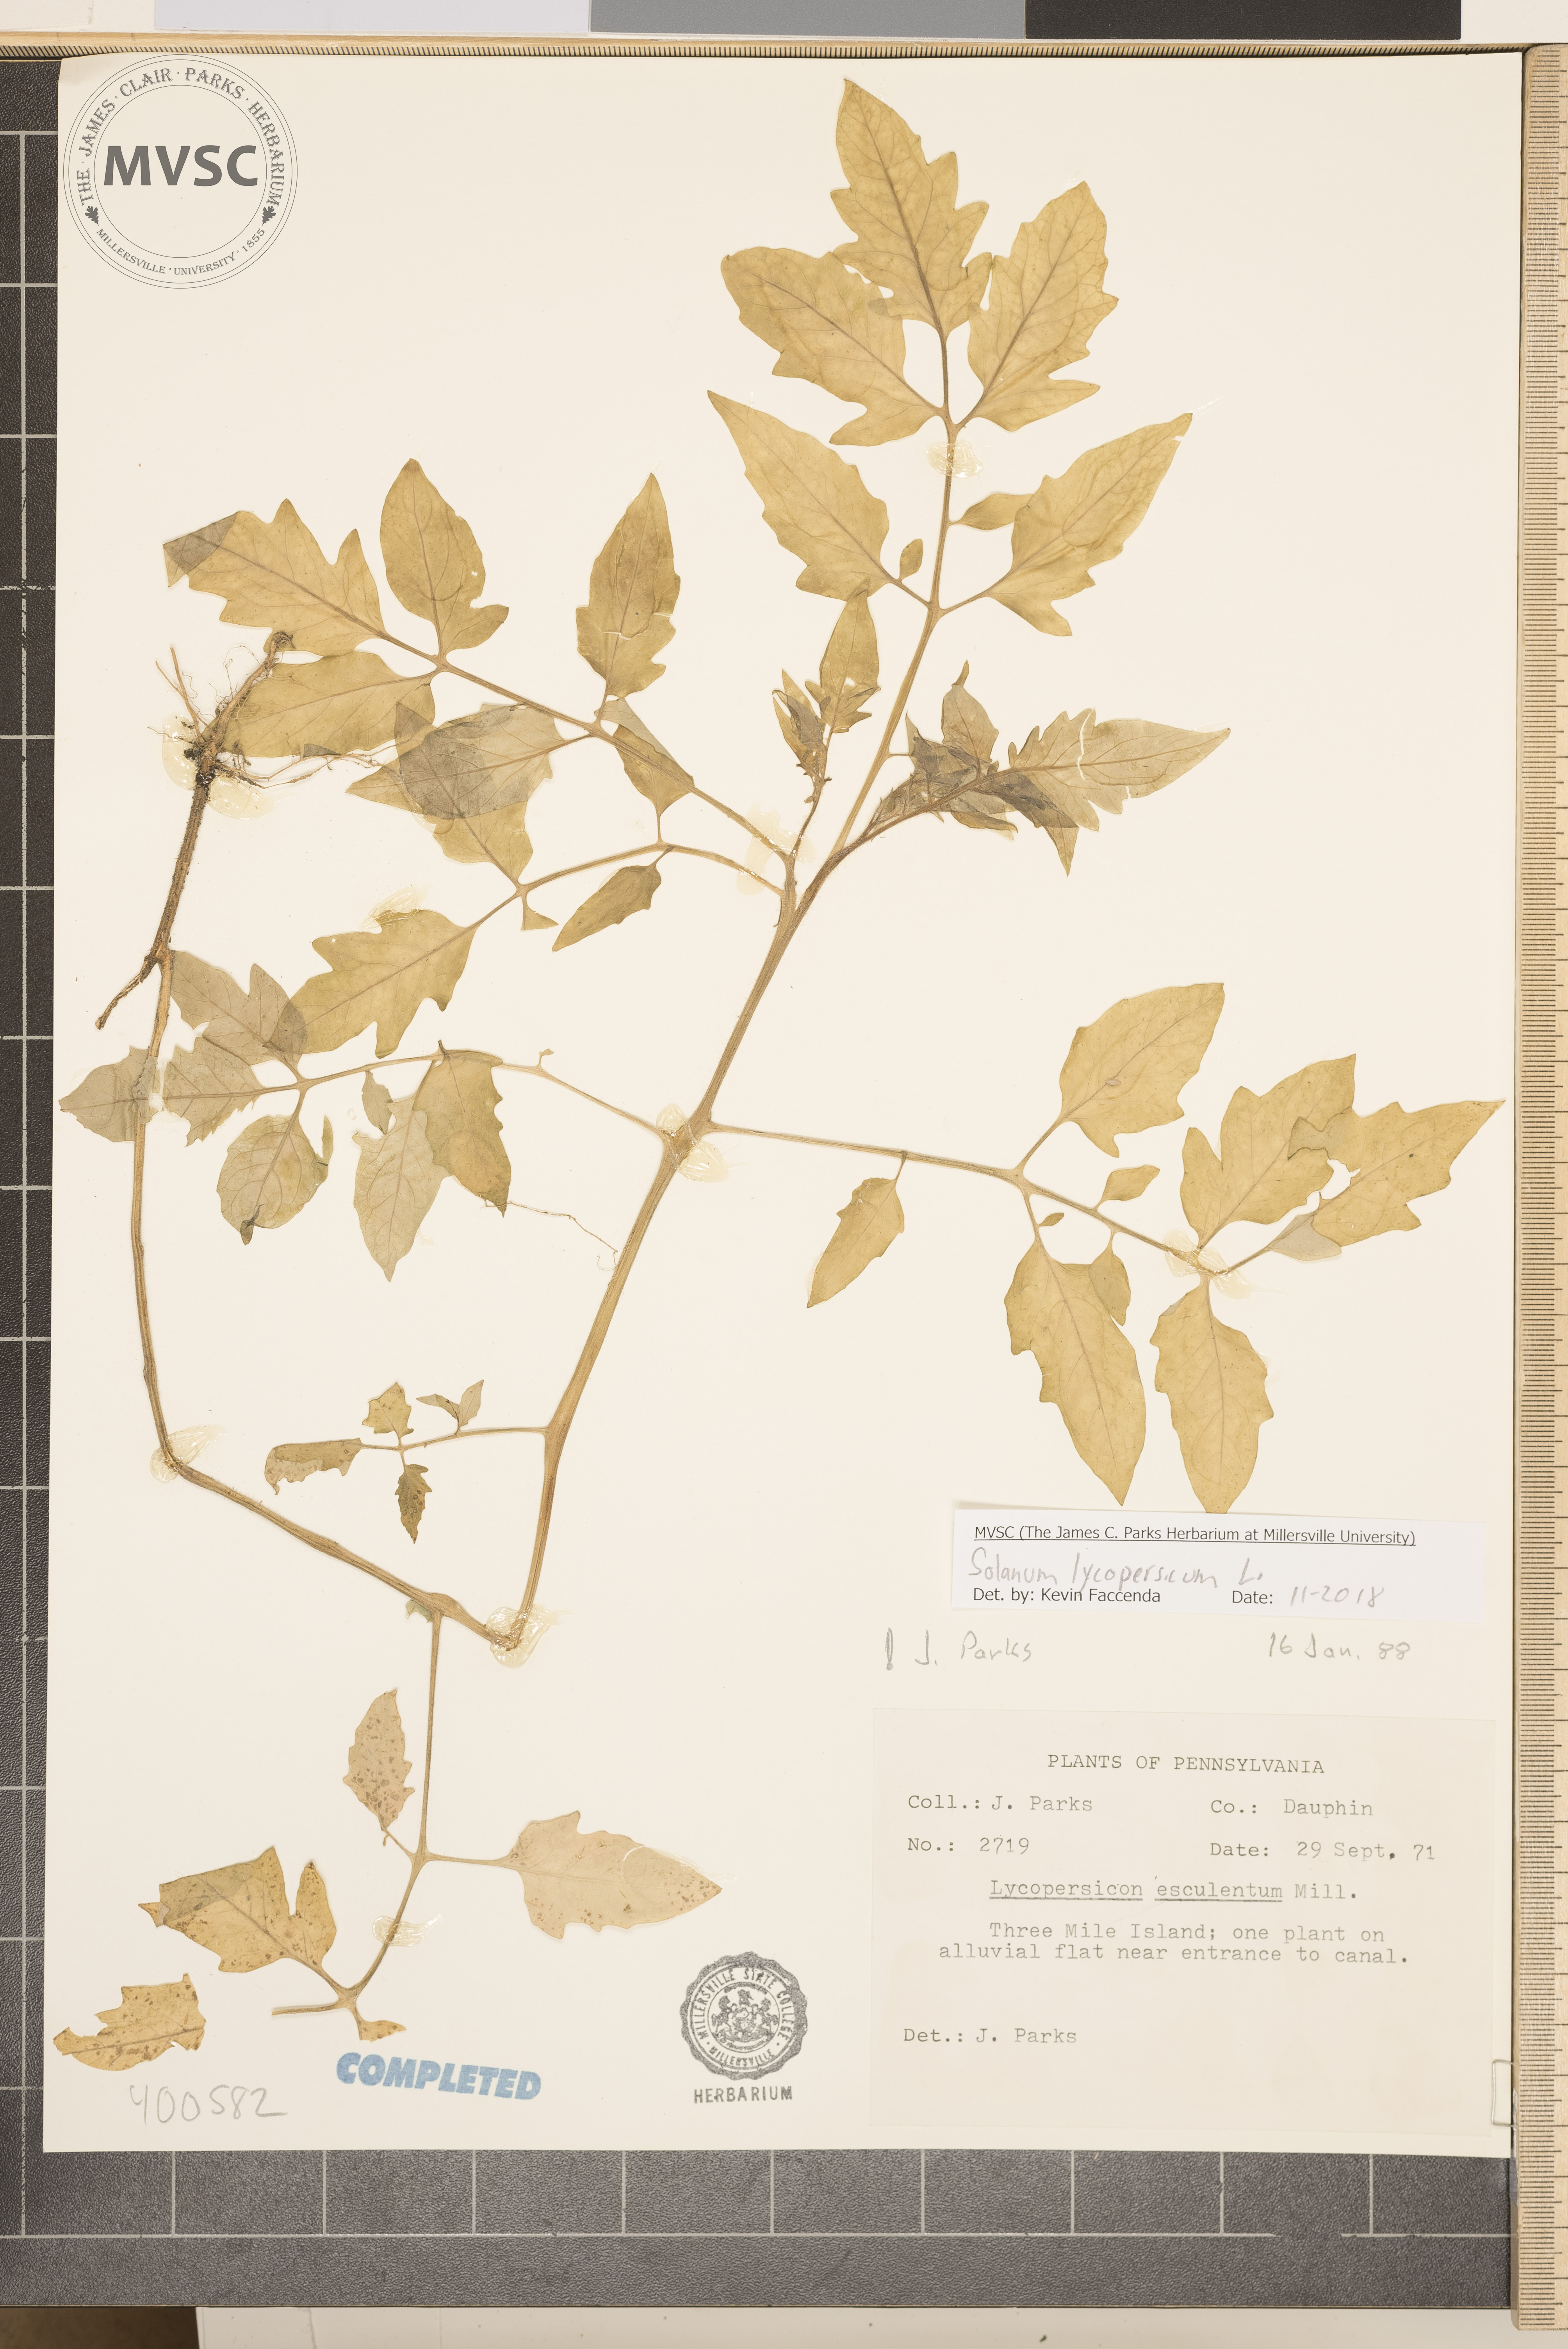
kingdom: Plantae
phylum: Tracheophyta
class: Magnoliopsida
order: Solanales
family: Solanaceae
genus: Solanum
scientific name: Solanum lycopersicum
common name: Garden tomato
